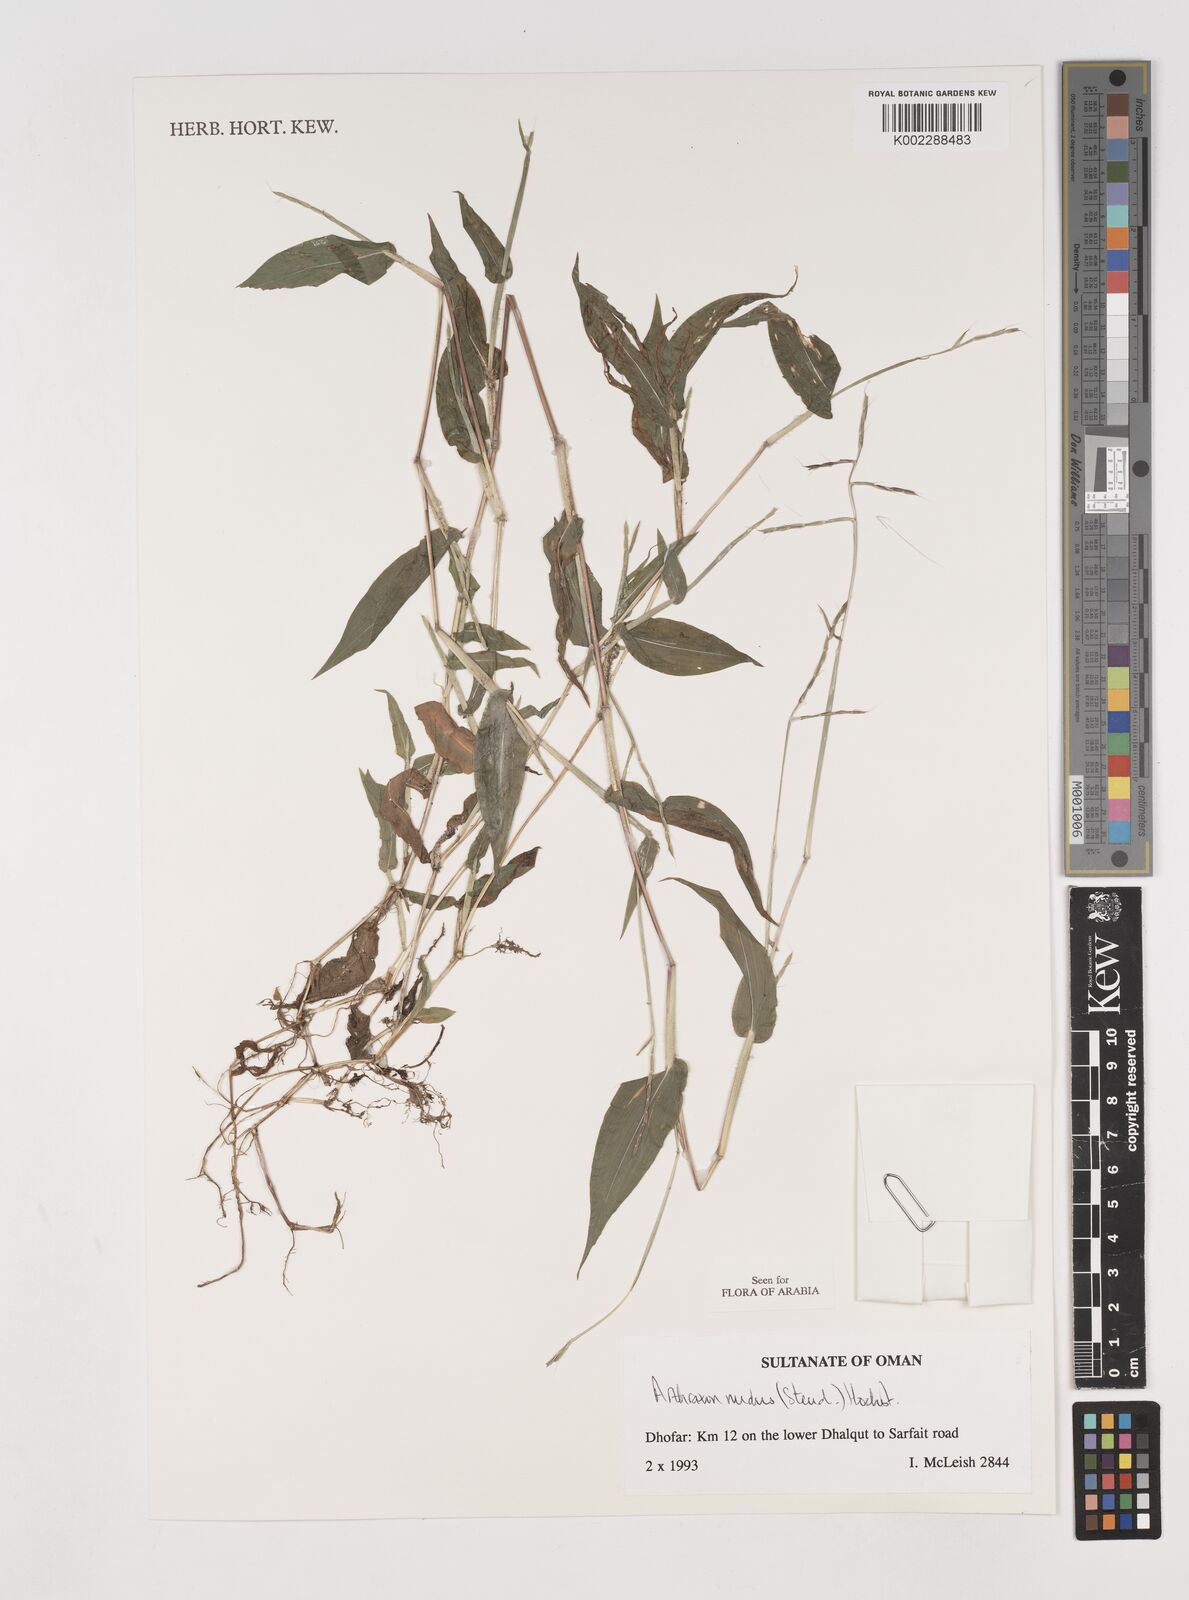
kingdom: Plantae
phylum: Tracheophyta
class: Liliopsida
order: Poales
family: Poaceae
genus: Arthraxon
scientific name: Arthraxon nudus
